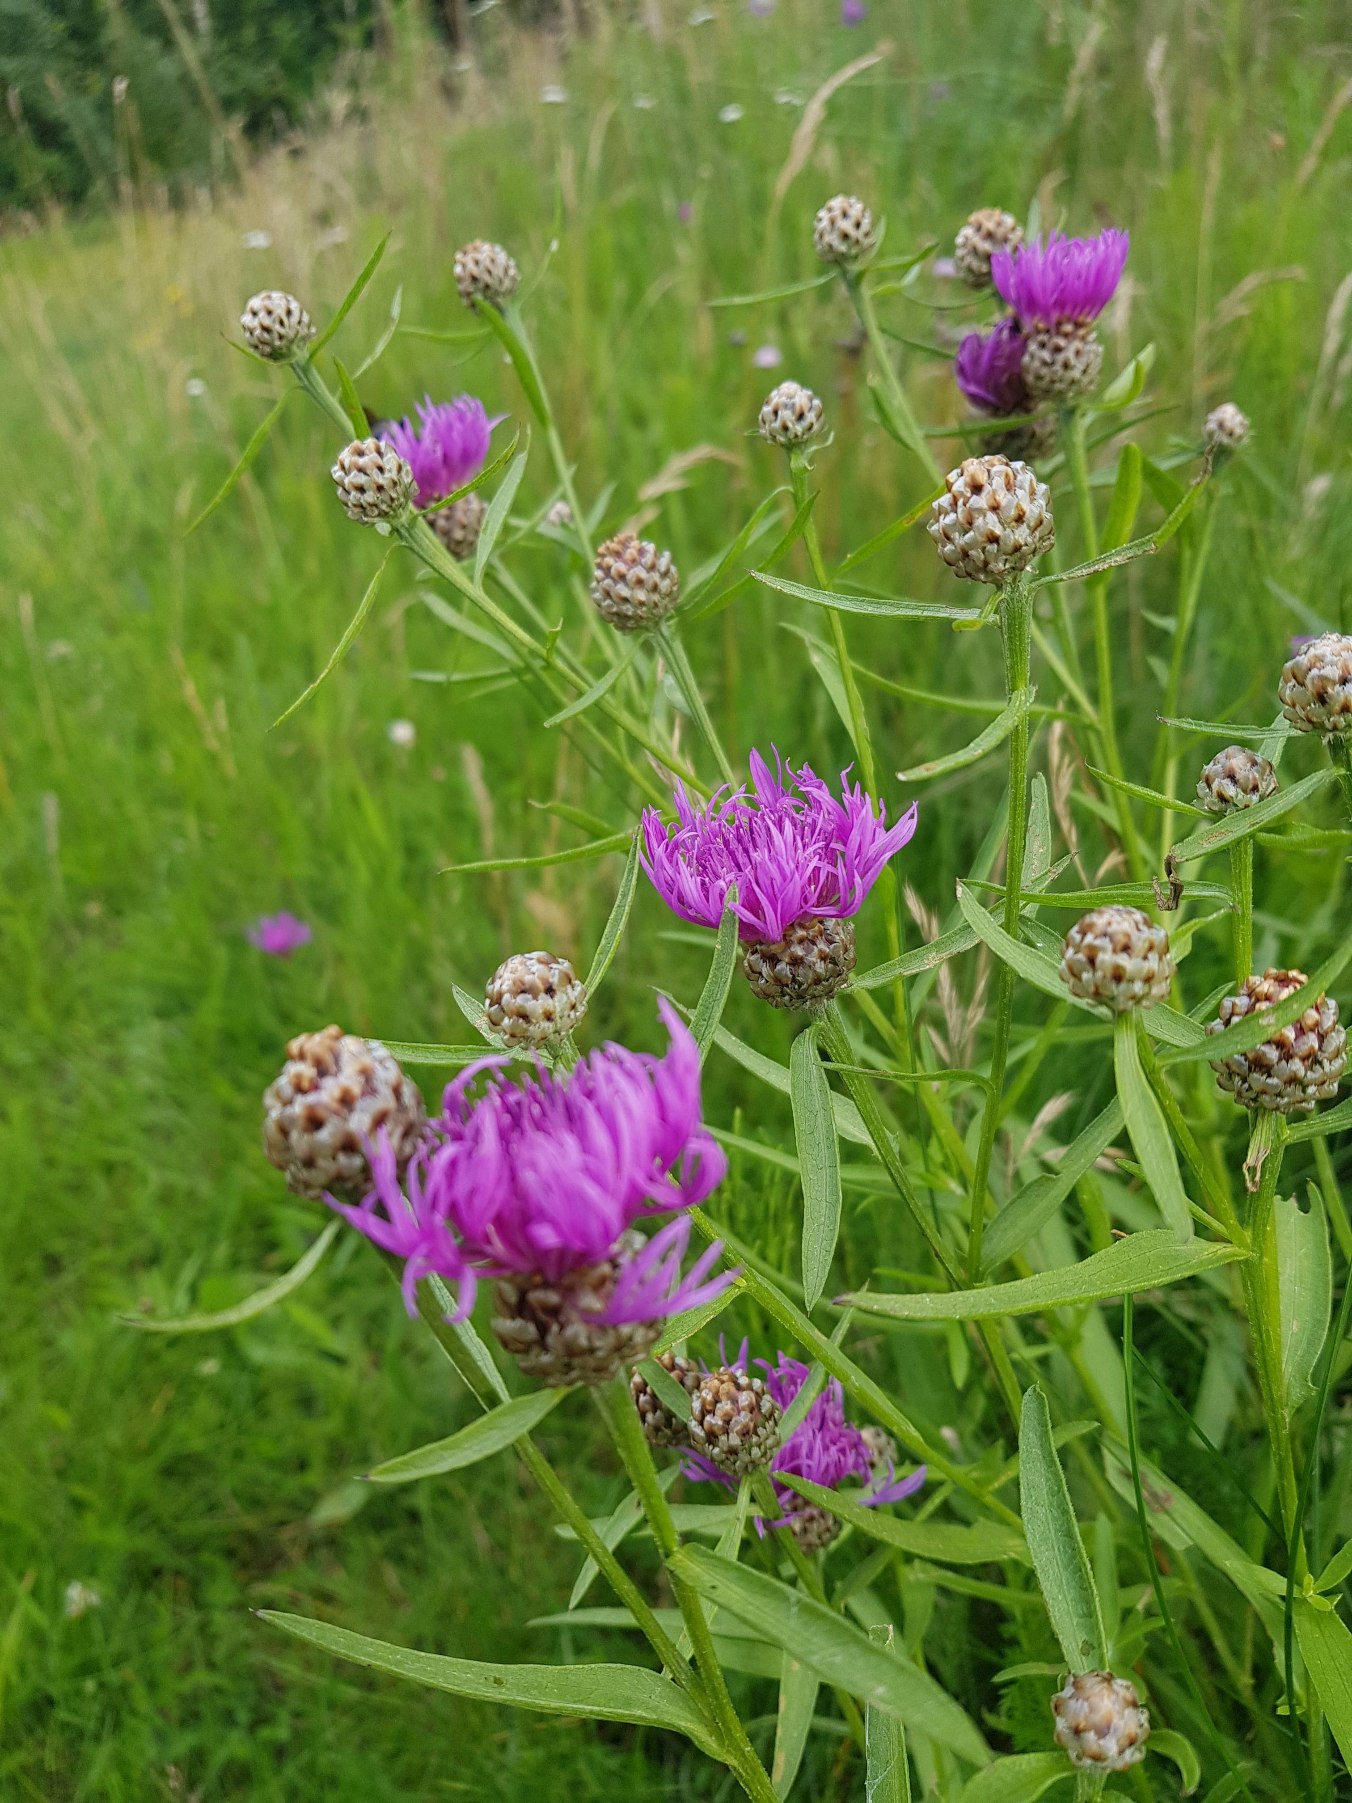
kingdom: Plantae
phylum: Tracheophyta
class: Magnoliopsida
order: Asterales
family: Asteraceae
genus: Centaurea
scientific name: Centaurea jacea
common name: Almindelig knopurt
